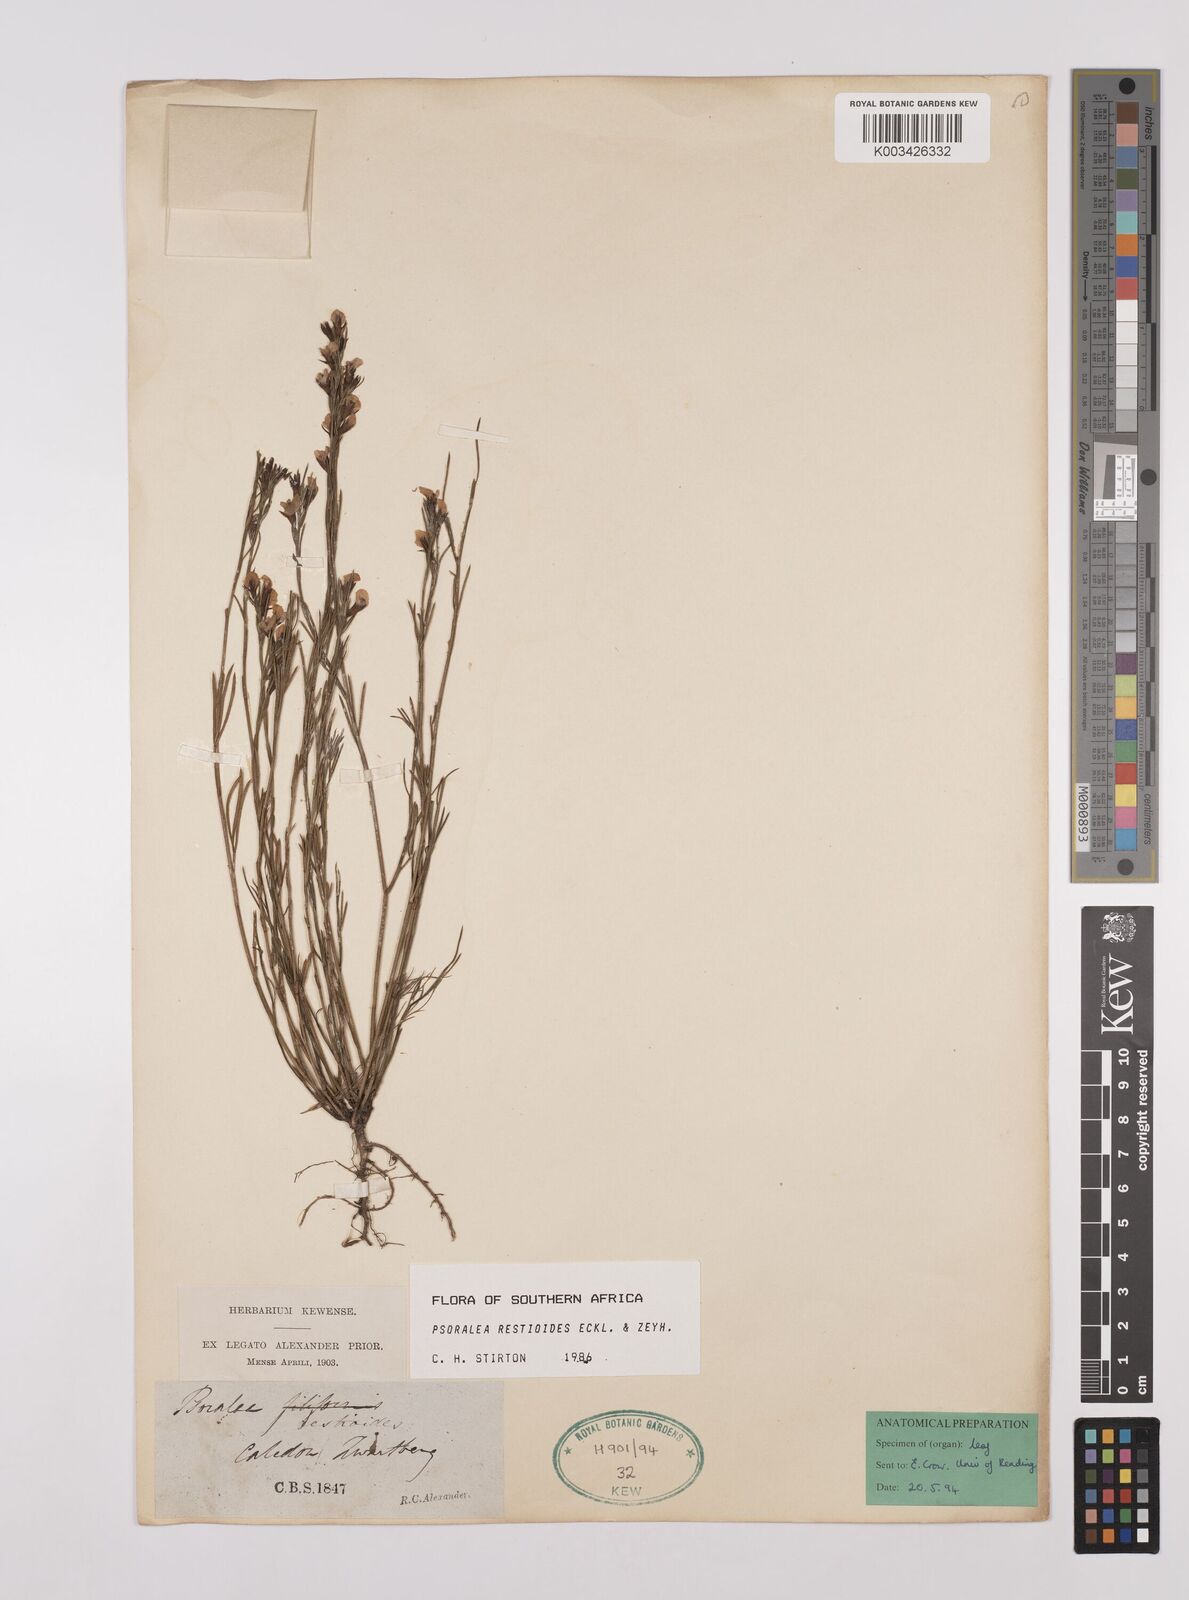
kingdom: Plantae
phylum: Tracheophyta
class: Magnoliopsida
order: Fabales
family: Fabaceae
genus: Psoralea
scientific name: Psoralea restioides
